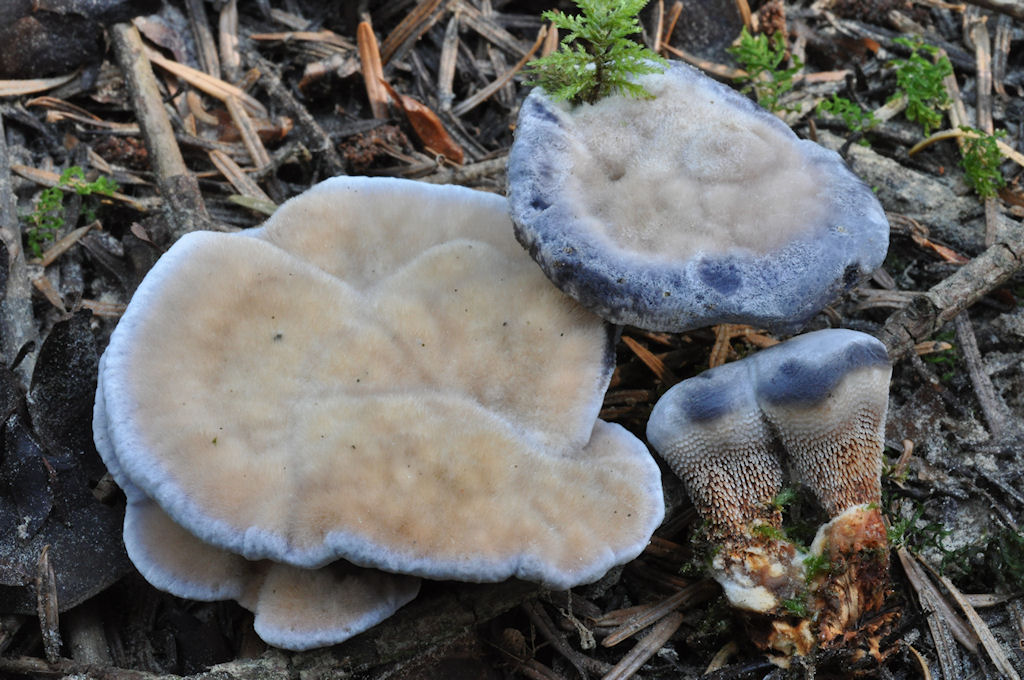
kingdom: Fungi
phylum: Basidiomycota
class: Agaricomycetes
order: Thelephorales
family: Bankeraceae
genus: Hydnellum
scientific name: Hydnellum caeruleum
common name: blålig korkpigsvamp
